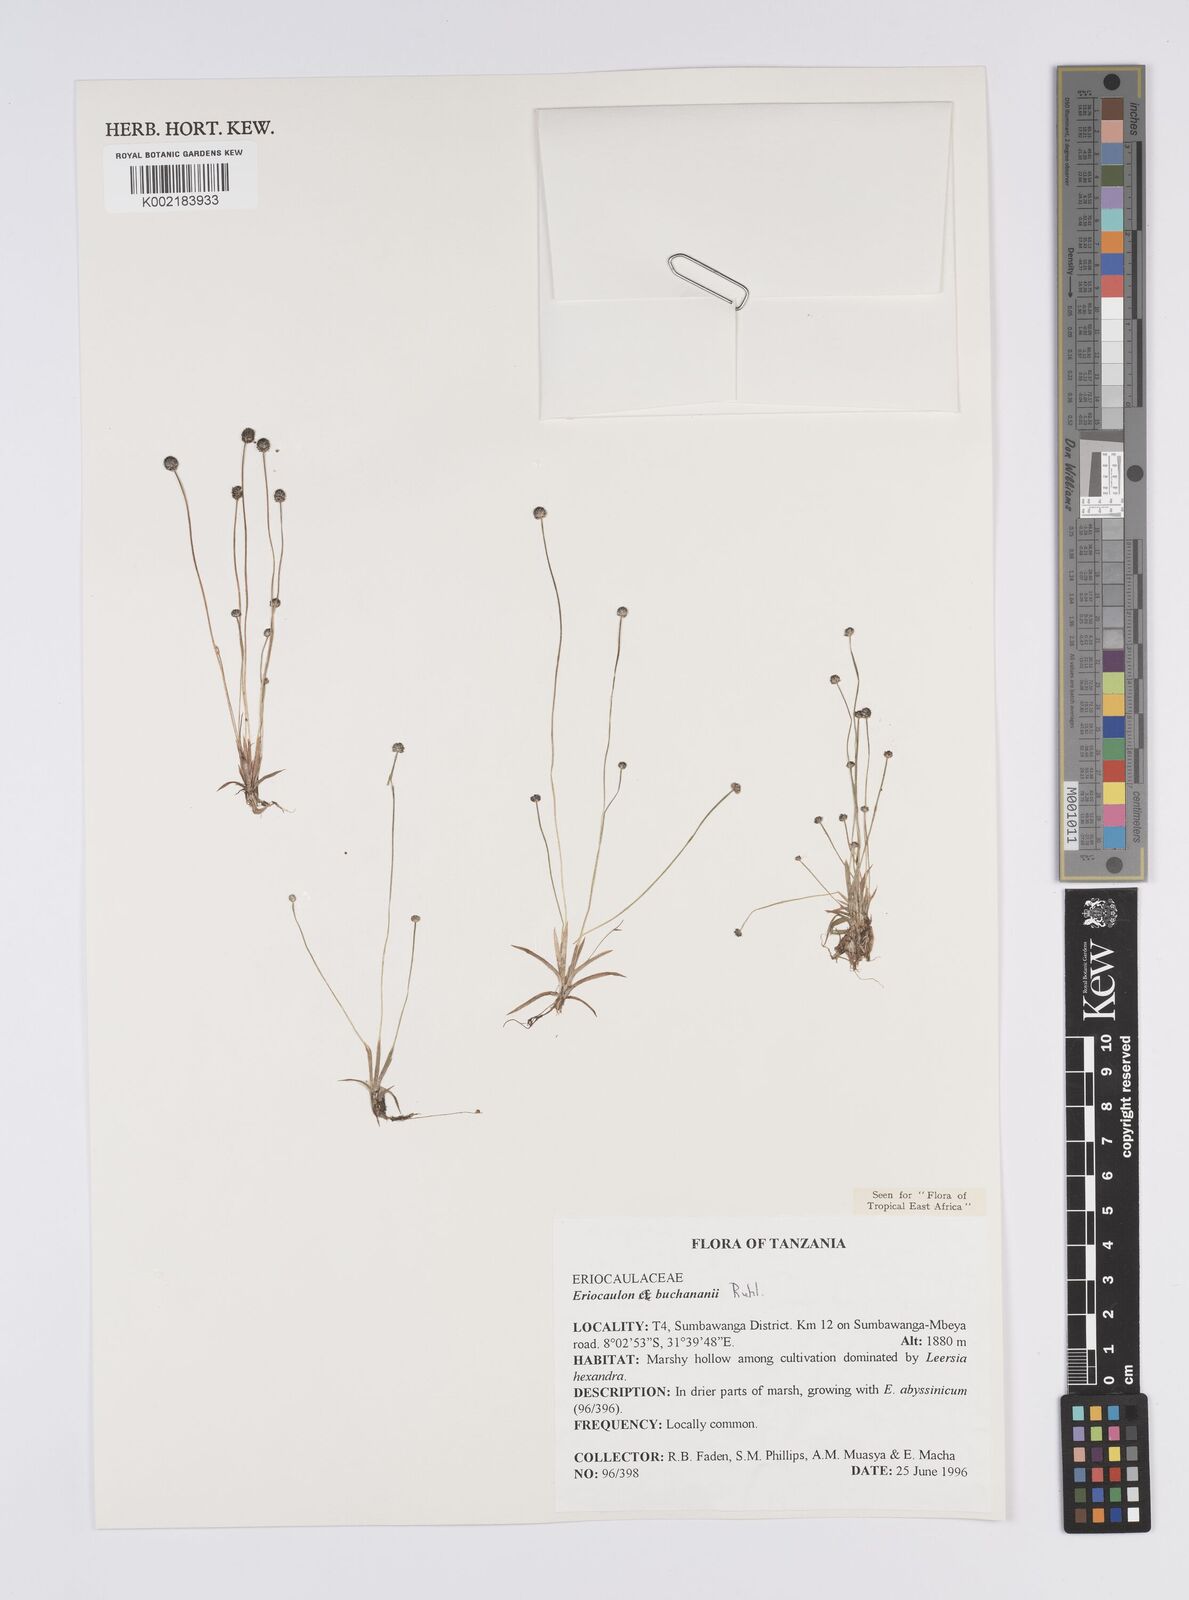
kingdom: Plantae
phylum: Tracheophyta
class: Liliopsida
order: Poales
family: Eriocaulaceae
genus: Eriocaulon
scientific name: Eriocaulon buchananii
